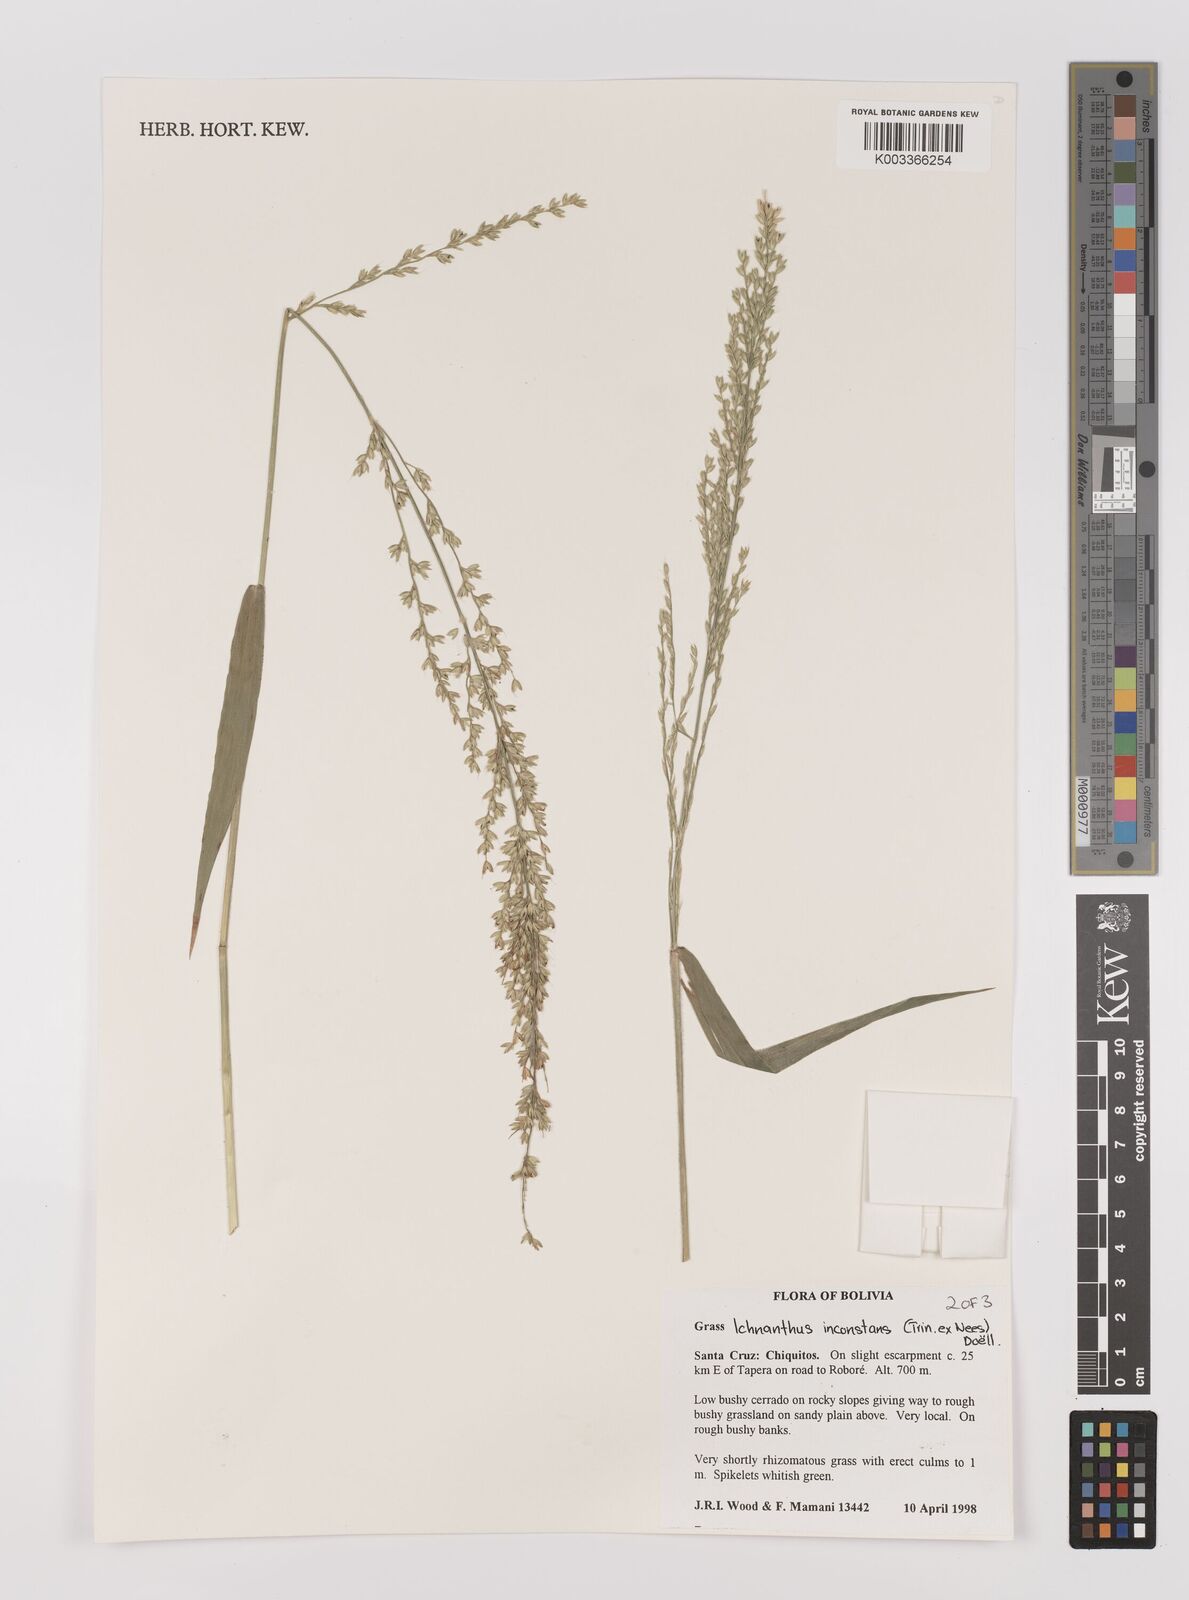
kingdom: Plantae
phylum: Tracheophyta
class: Liliopsida
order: Poales
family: Poaceae
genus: Ichnanthus
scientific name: Ichnanthus inconstans
